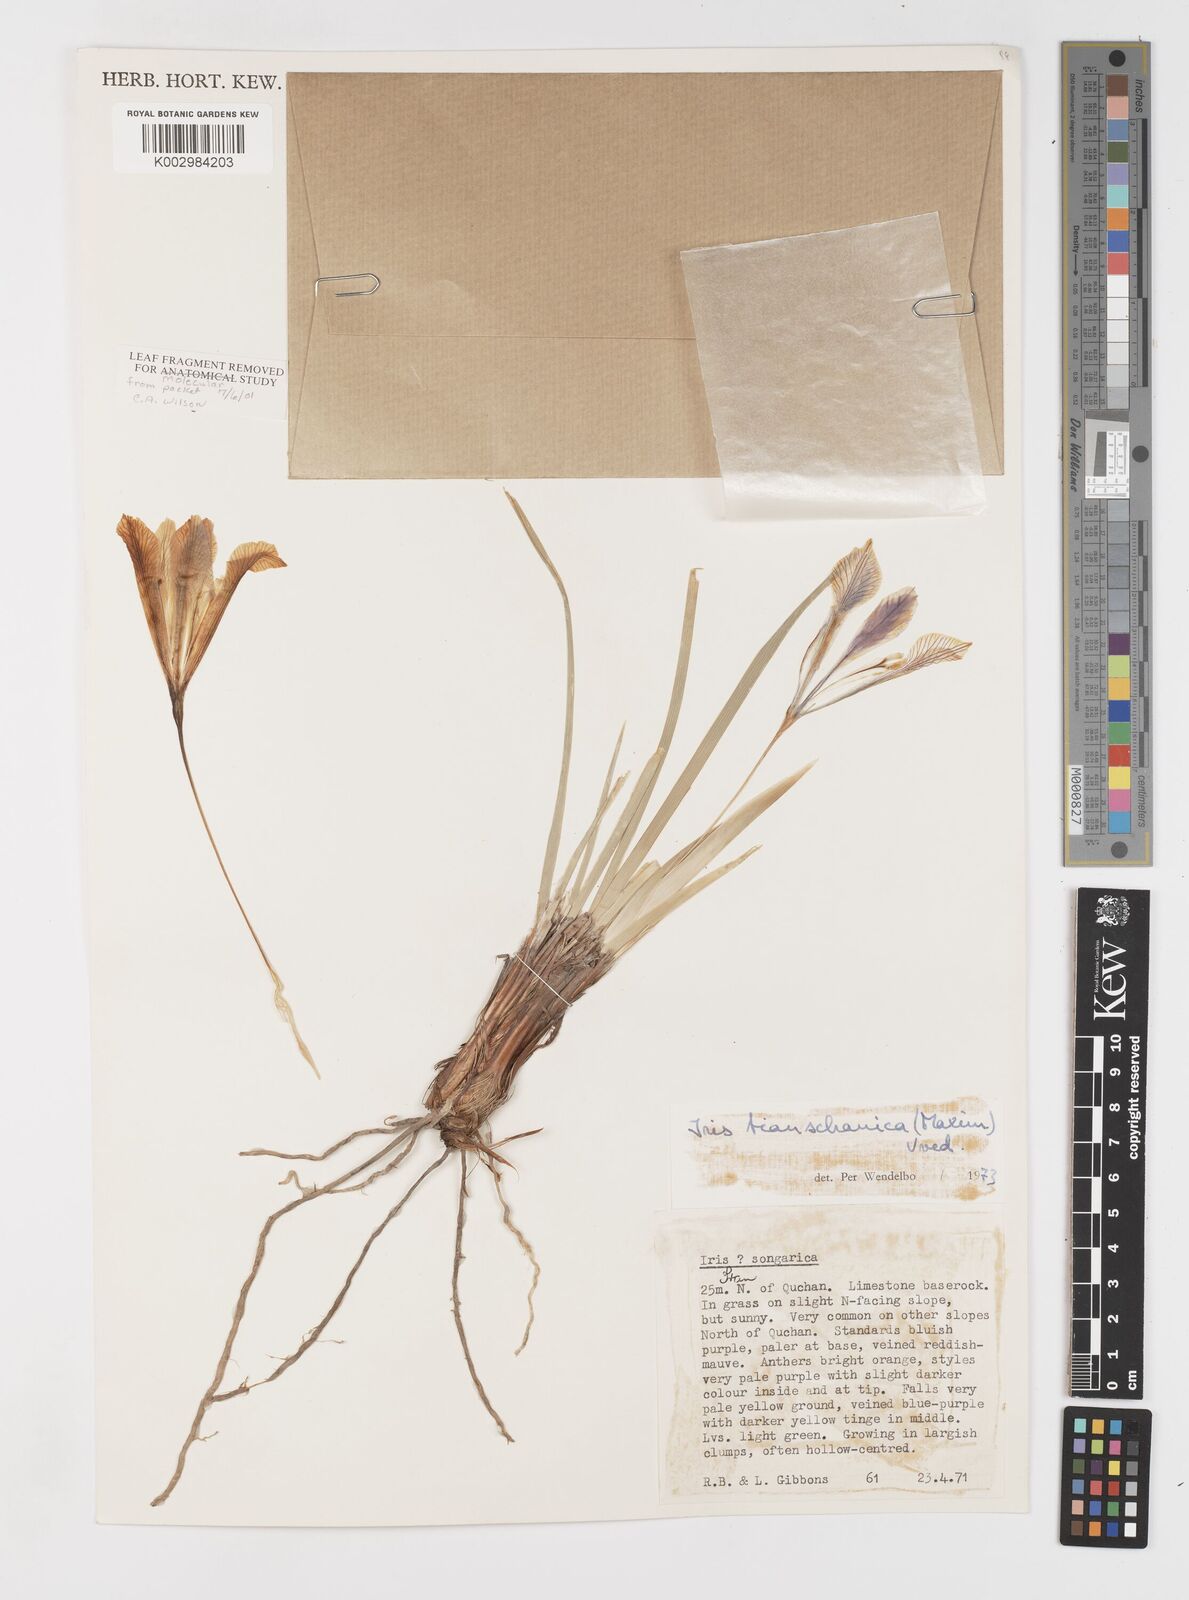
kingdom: Plantae
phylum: Tracheophyta
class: Liliopsida
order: Asparagales
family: Iridaceae
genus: Iris
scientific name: Iris loczyi
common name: Tian shan mountain iris
